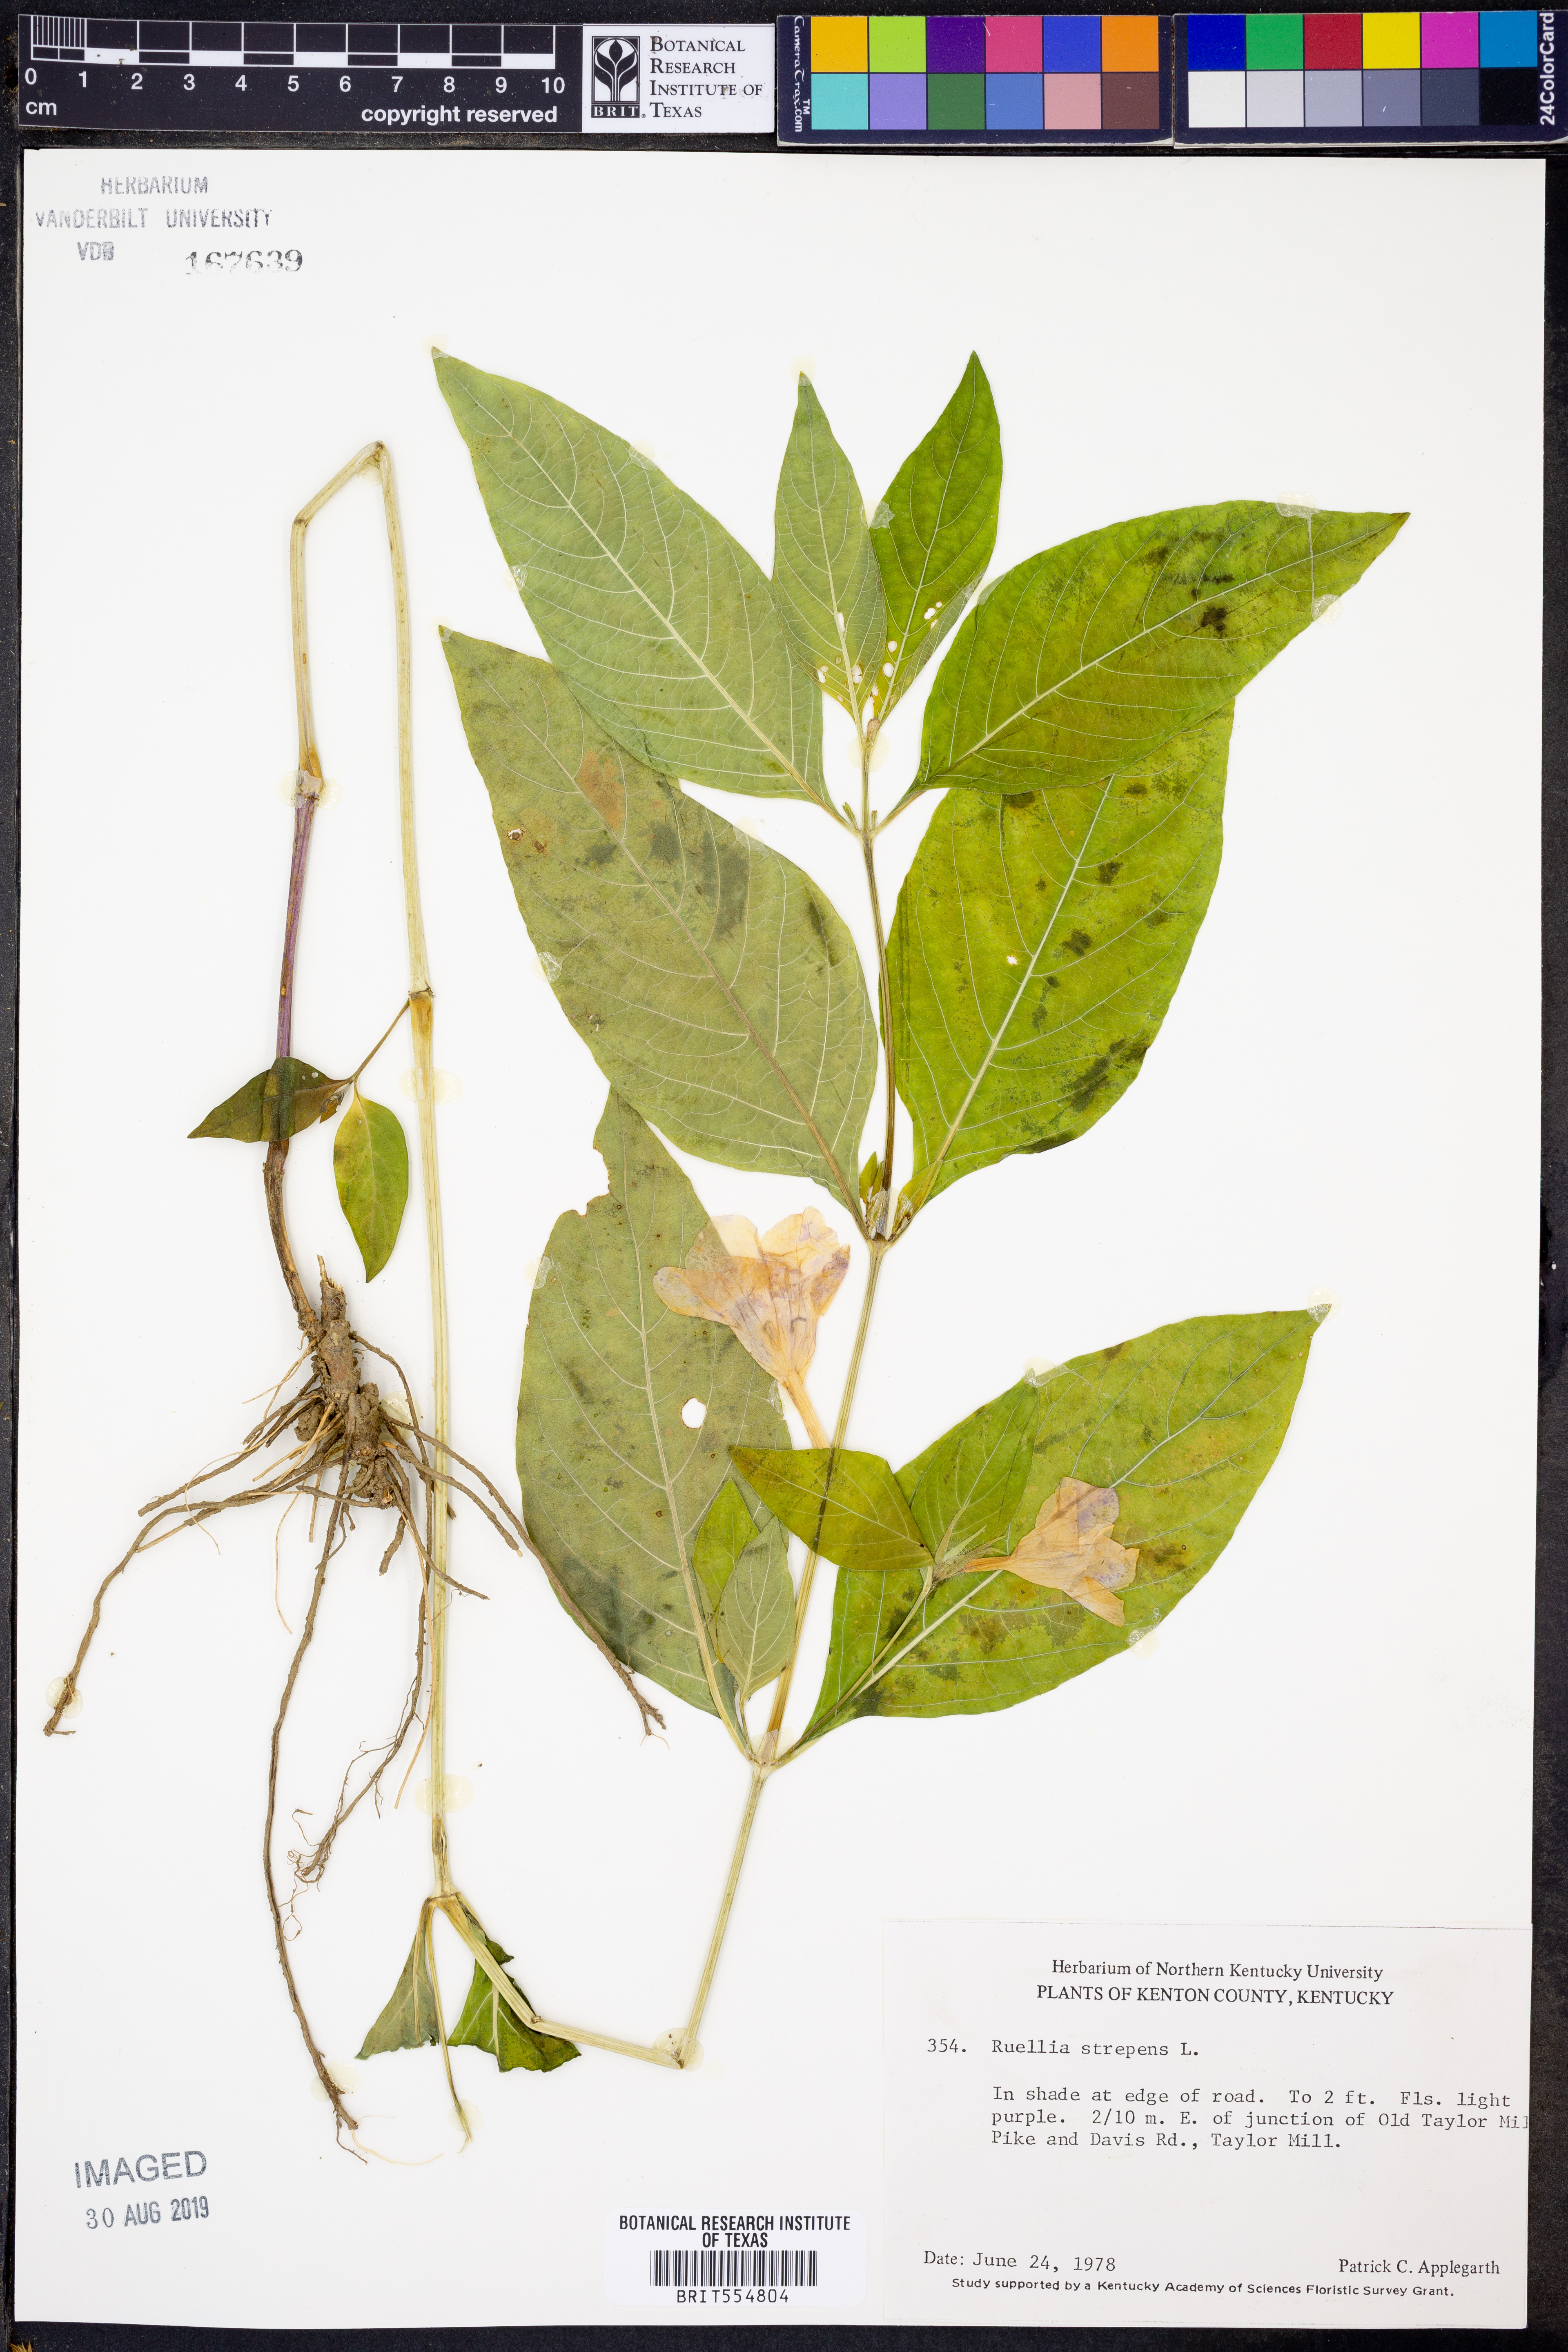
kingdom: Plantae
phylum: Tracheophyta
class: Magnoliopsida
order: Lamiales
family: Acanthaceae
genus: Ruellia
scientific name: Ruellia strepens
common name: Limestone wild petunia
